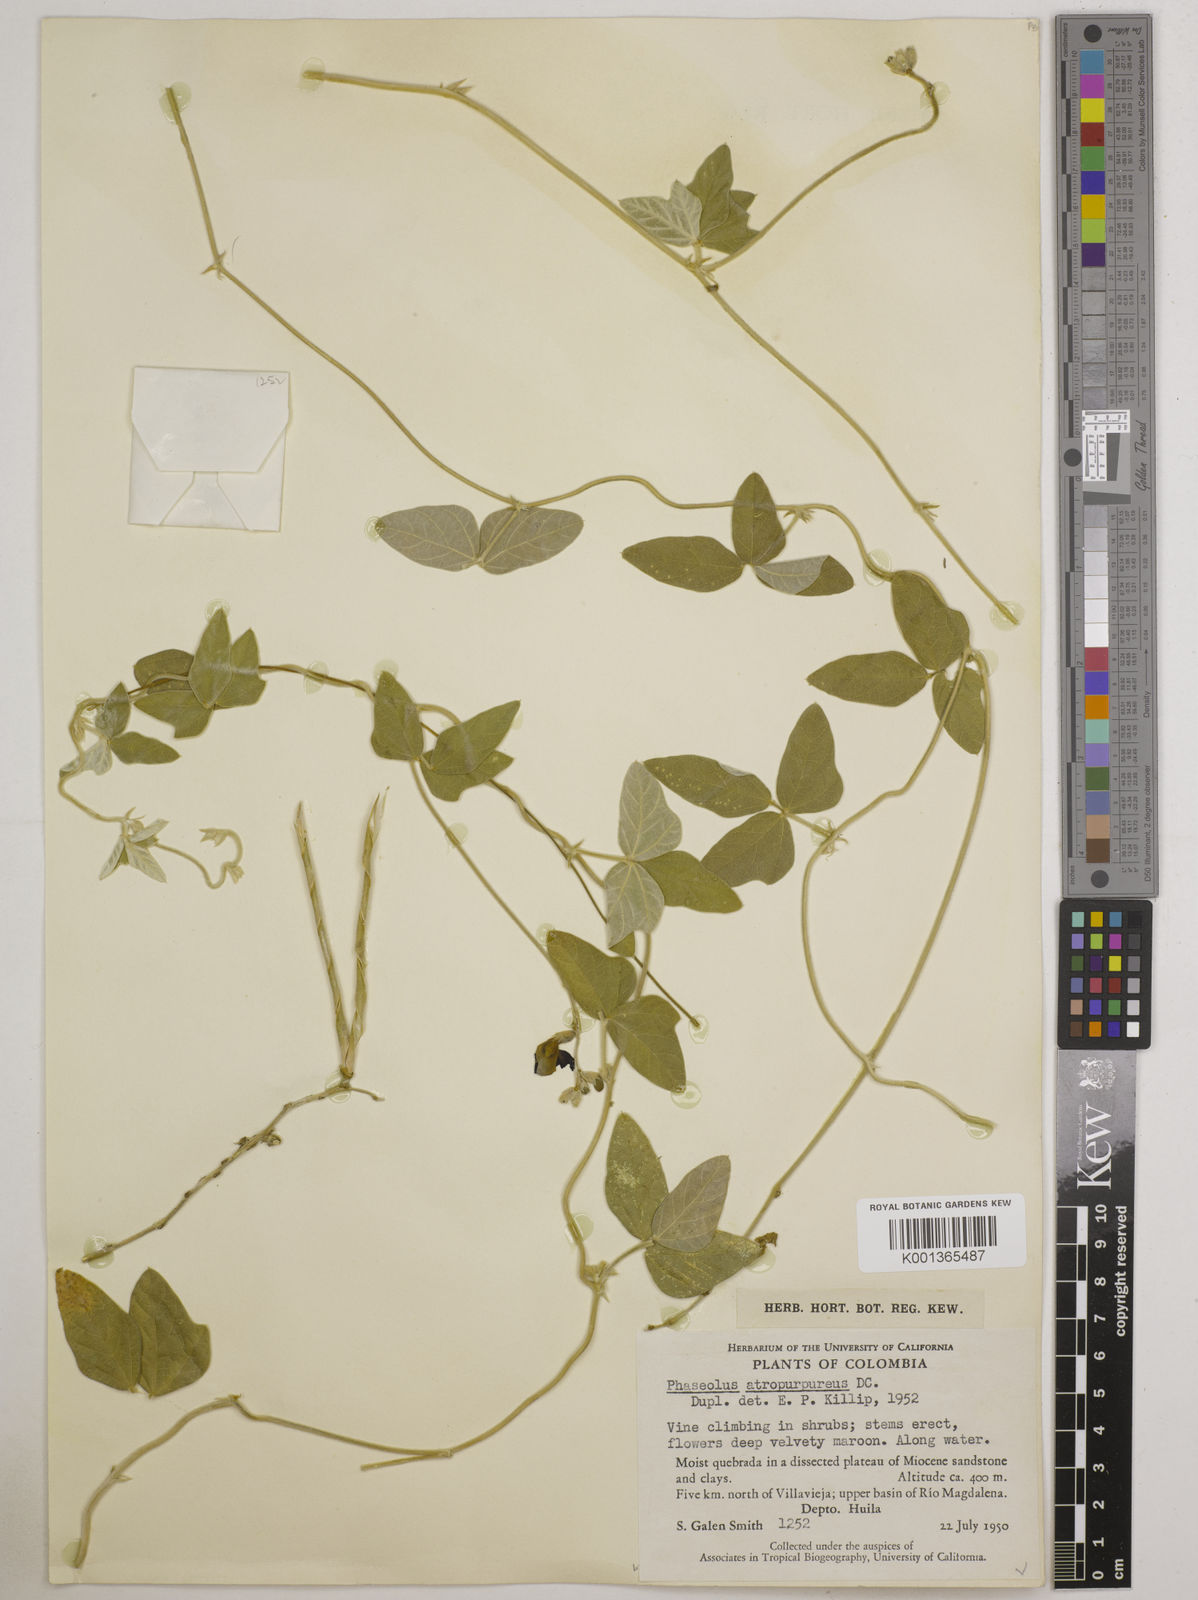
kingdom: Plantae
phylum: Tracheophyta
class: Magnoliopsida
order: Fabales
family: Fabaceae
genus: Macroptilium
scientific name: Macroptilium atropurpureum
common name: Purple bushbean
